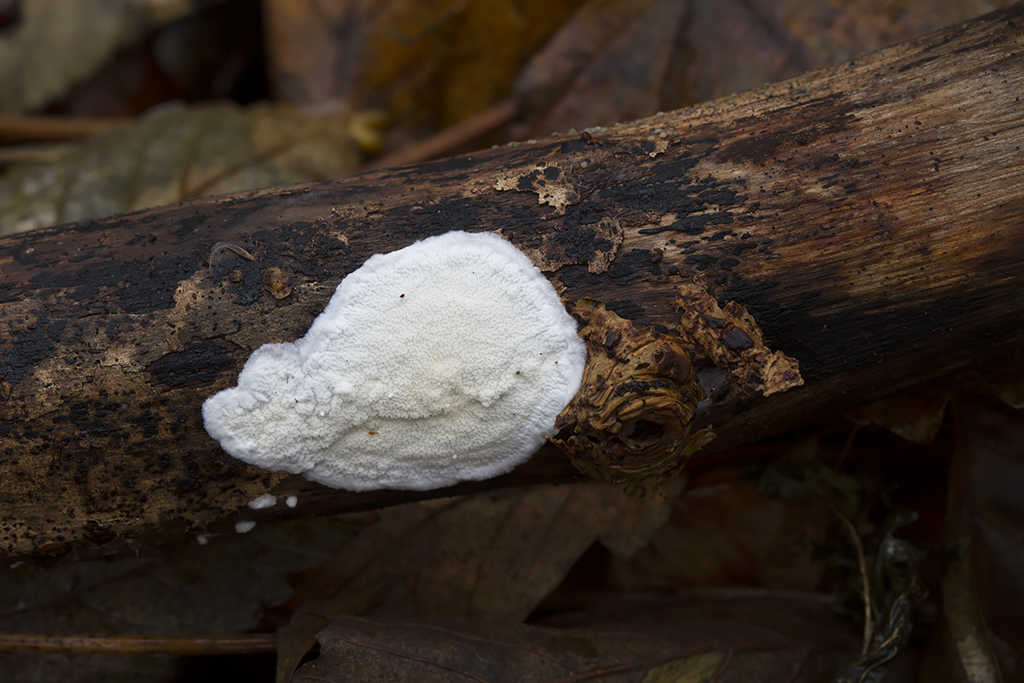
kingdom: Fungi
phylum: Basidiomycota
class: Agaricomycetes
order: Polyporales
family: Irpicaceae
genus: Byssomerulius
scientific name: Byssomerulius corium
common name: læder-åresvamp
